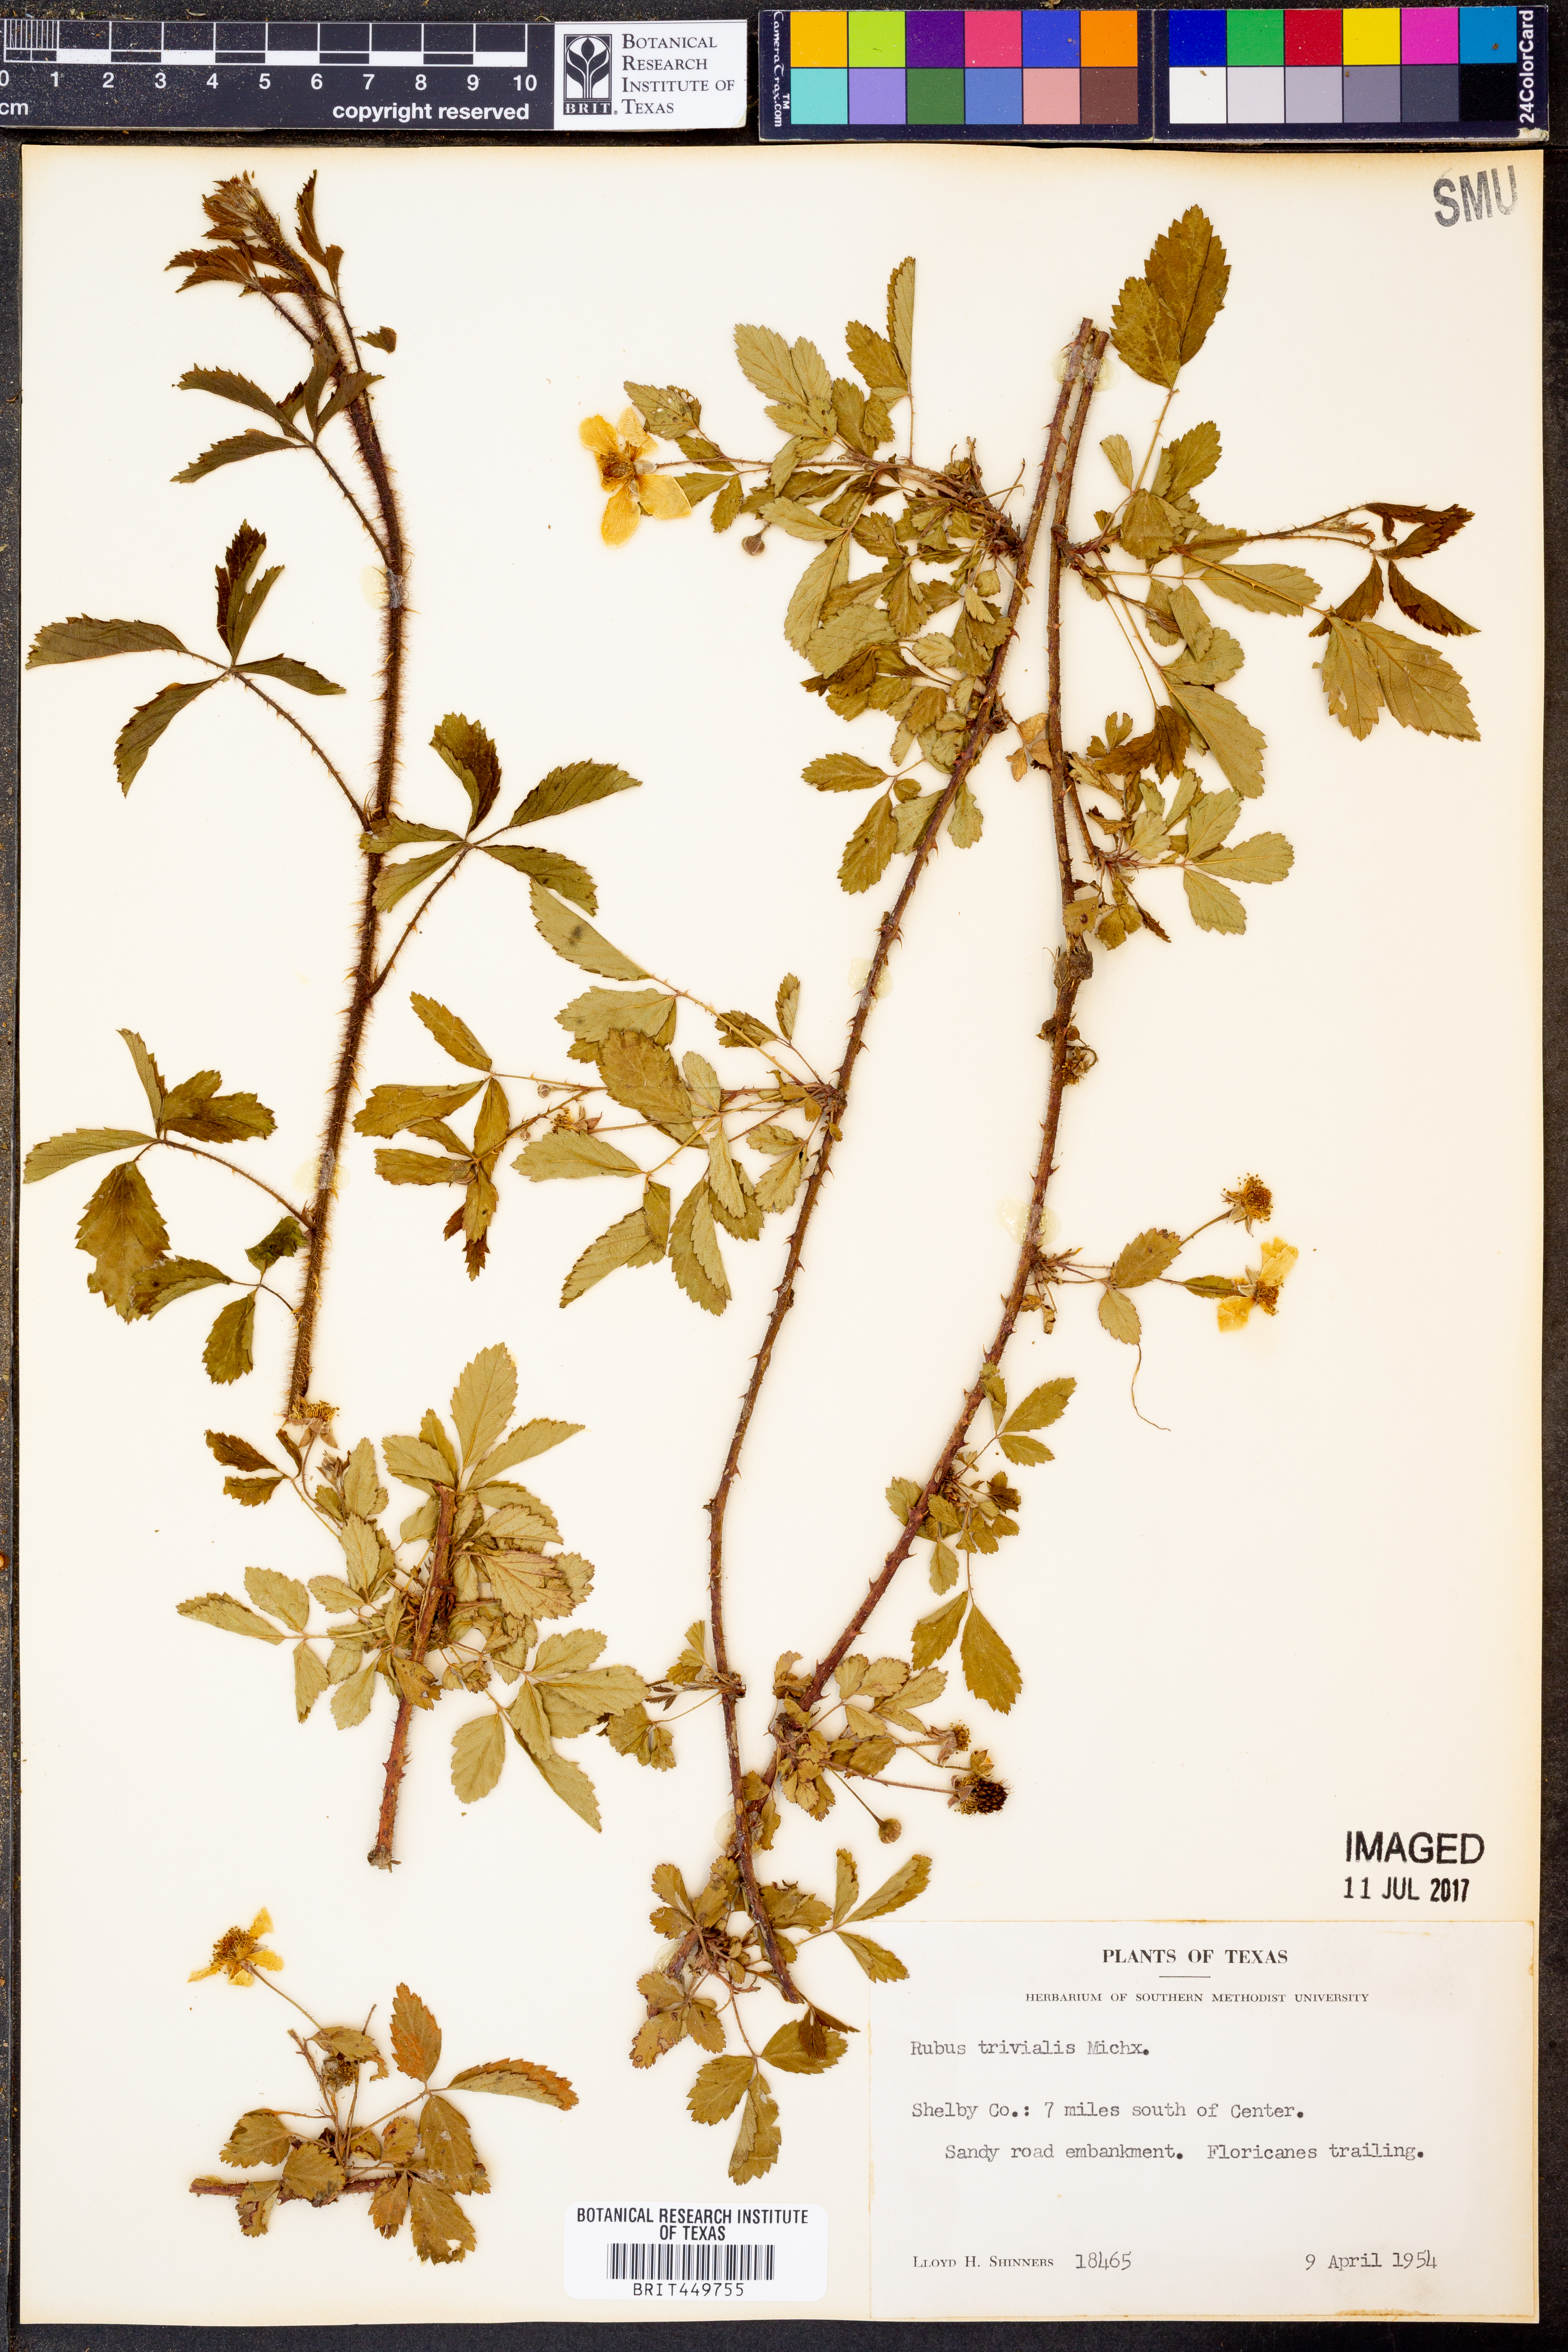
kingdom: Plantae
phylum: Tracheophyta
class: Magnoliopsida
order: Rosales
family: Rosaceae
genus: Rubus
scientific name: Rubus trivialis
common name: Southern dewberry
